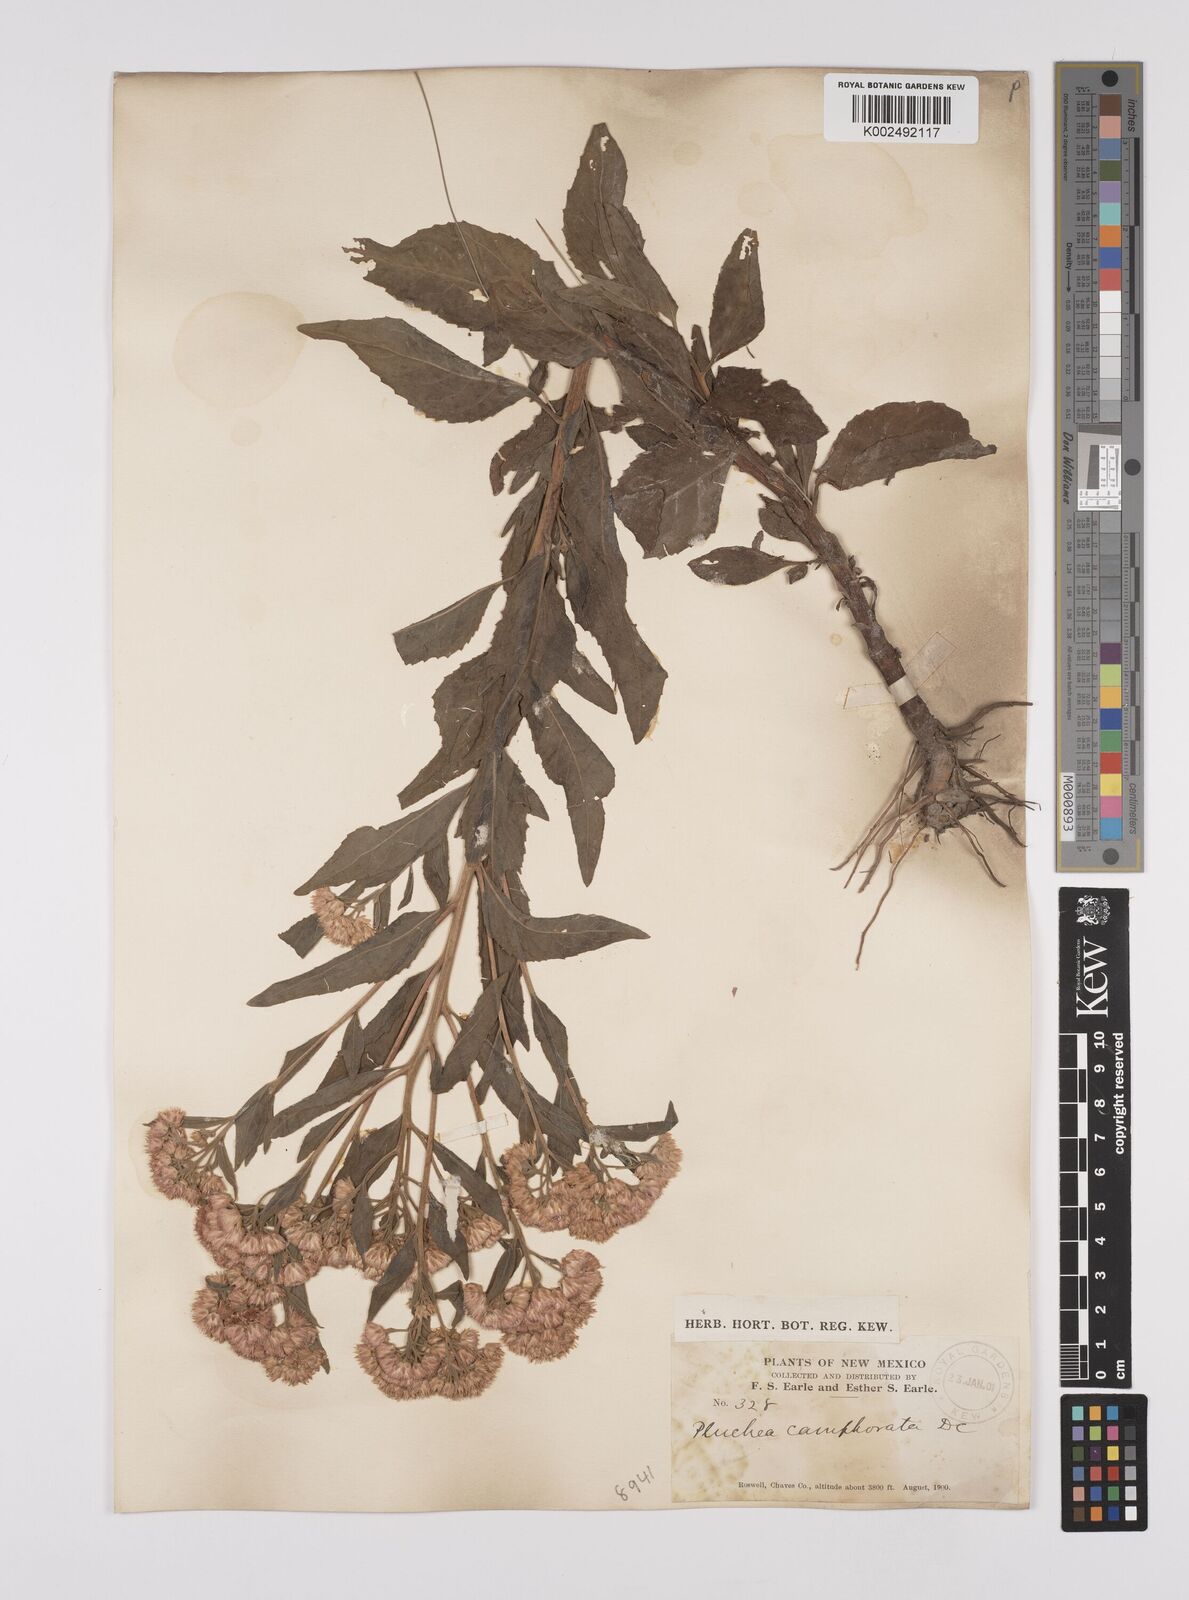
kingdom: Plantae
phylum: Tracheophyta
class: Magnoliopsida
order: Asterales
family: Asteraceae
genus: Pluchea
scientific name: Pluchea camphorata
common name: Camphor pluchea
